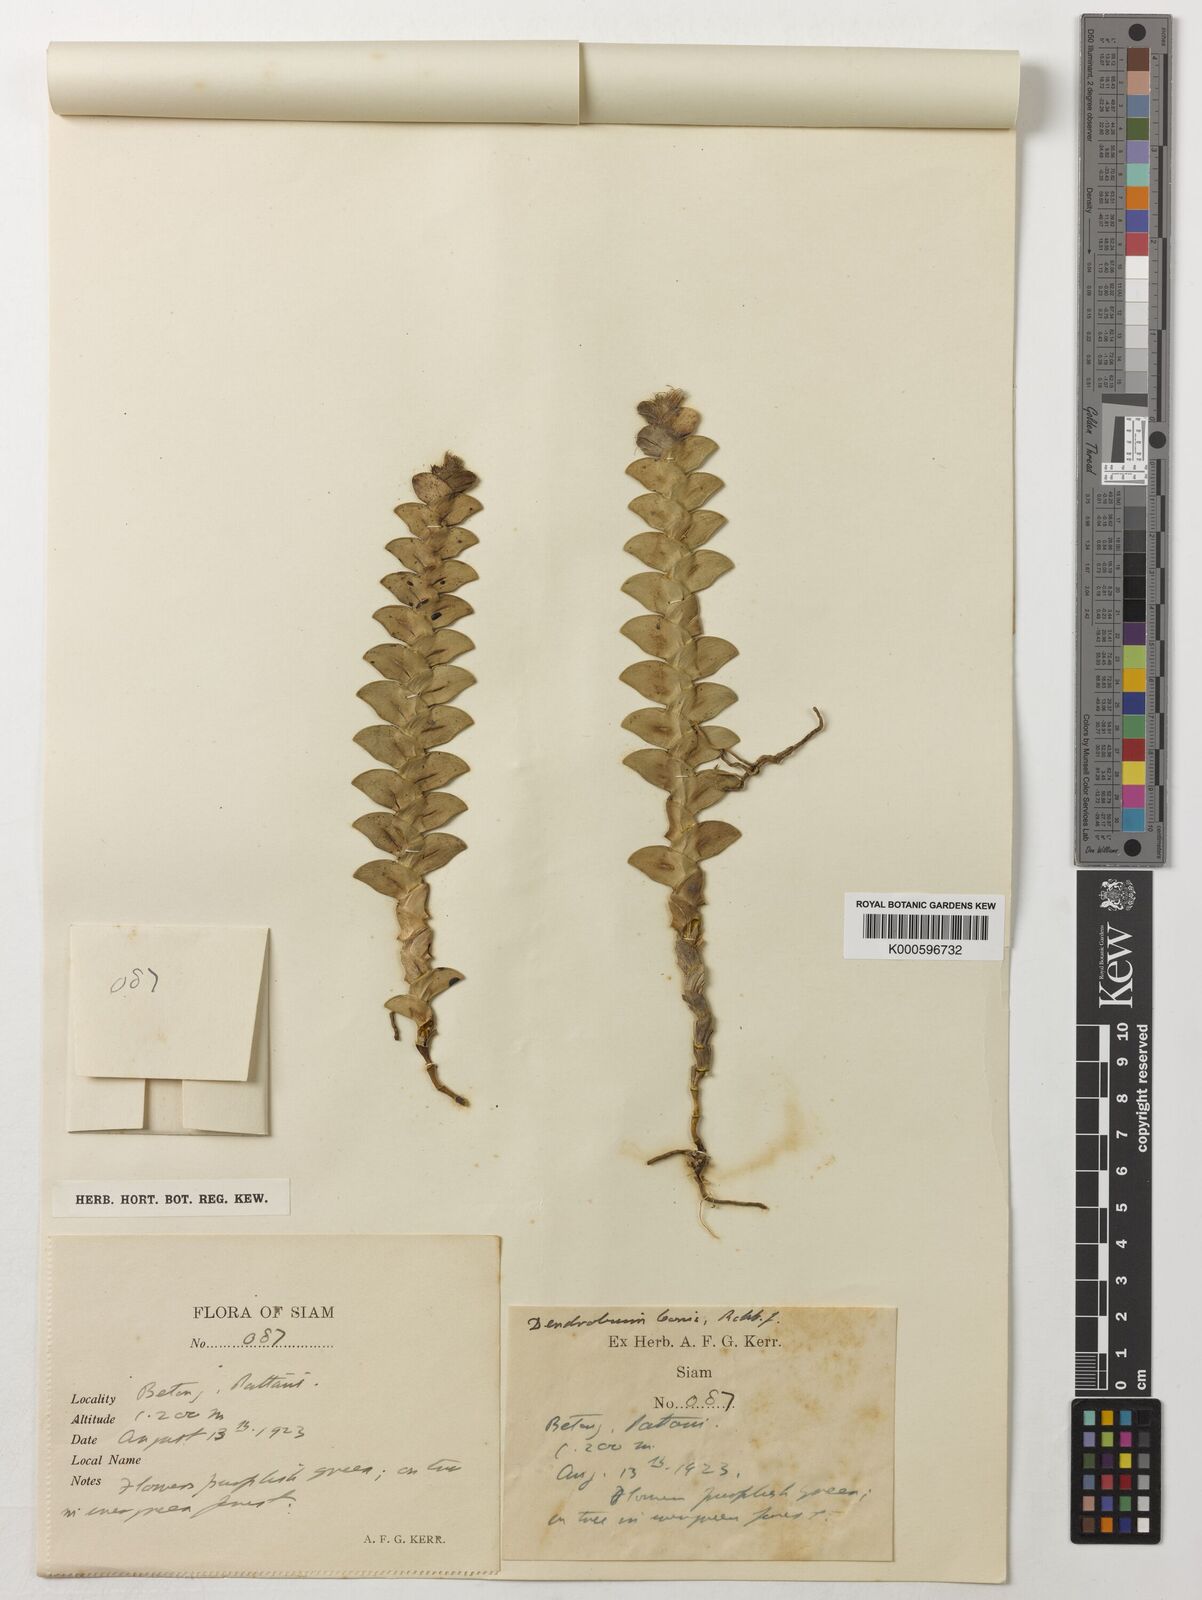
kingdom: Plantae
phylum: Tracheophyta
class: Liliopsida
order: Asparagales
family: Orchidaceae
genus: Dendrobium
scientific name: Dendrobium leonis
